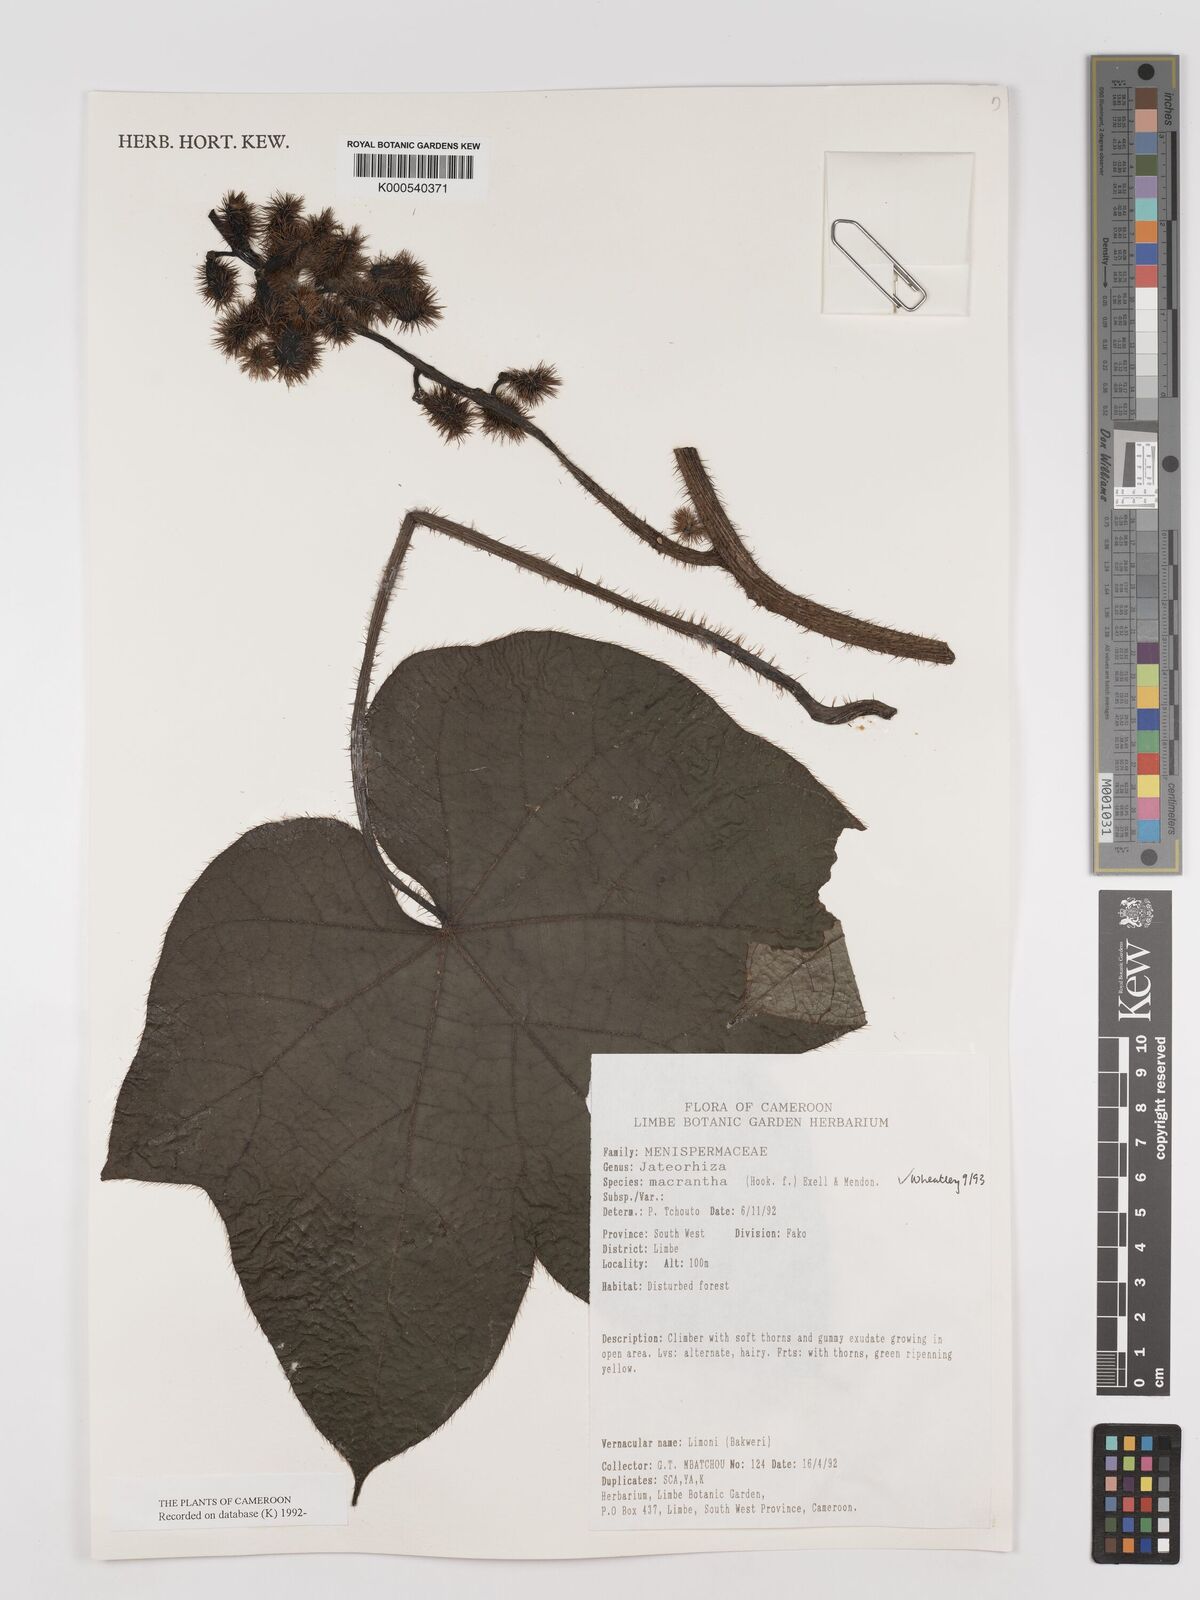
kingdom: Plantae
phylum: Tracheophyta
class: Magnoliopsida
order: Ranunculales
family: Menispermaceae
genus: Jateorhiza
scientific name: Jateorhiza
